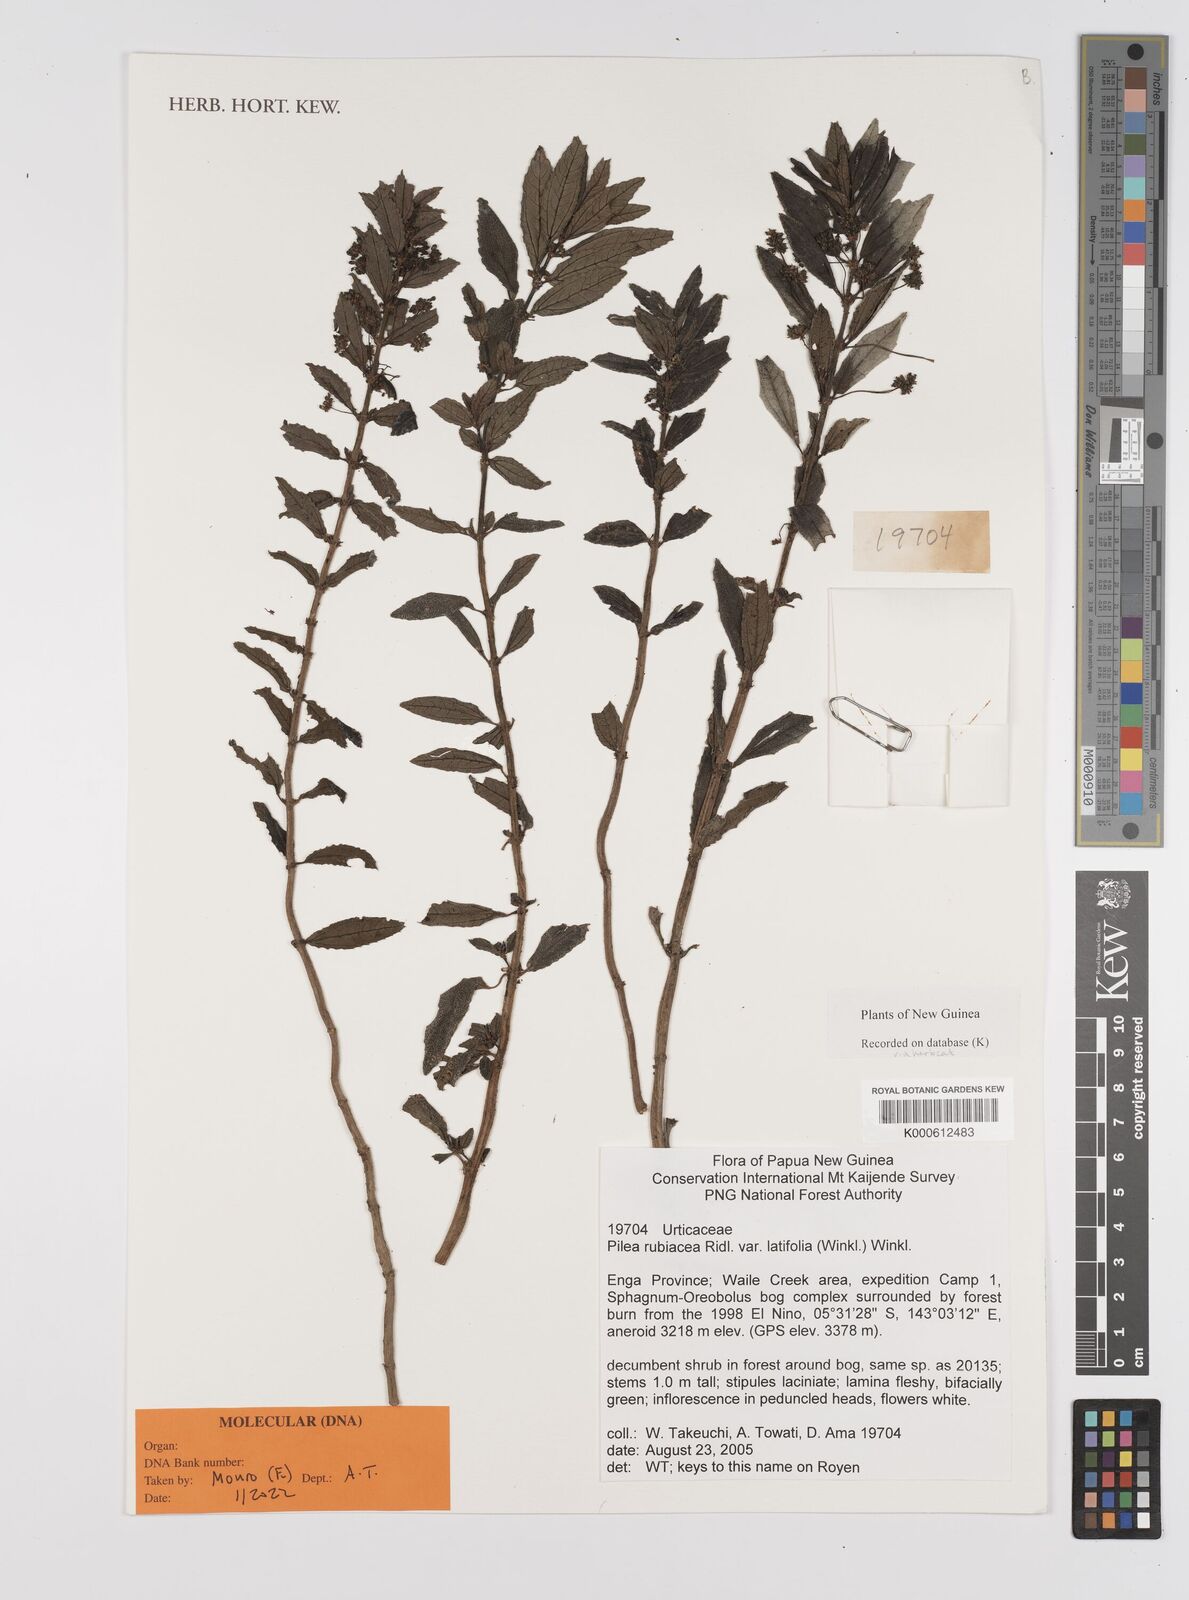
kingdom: Plantae
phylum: Tracheophyta
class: Magnoliopsida
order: Rosales
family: Urticaceae
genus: Pilea
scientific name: Pilea rubiacea
